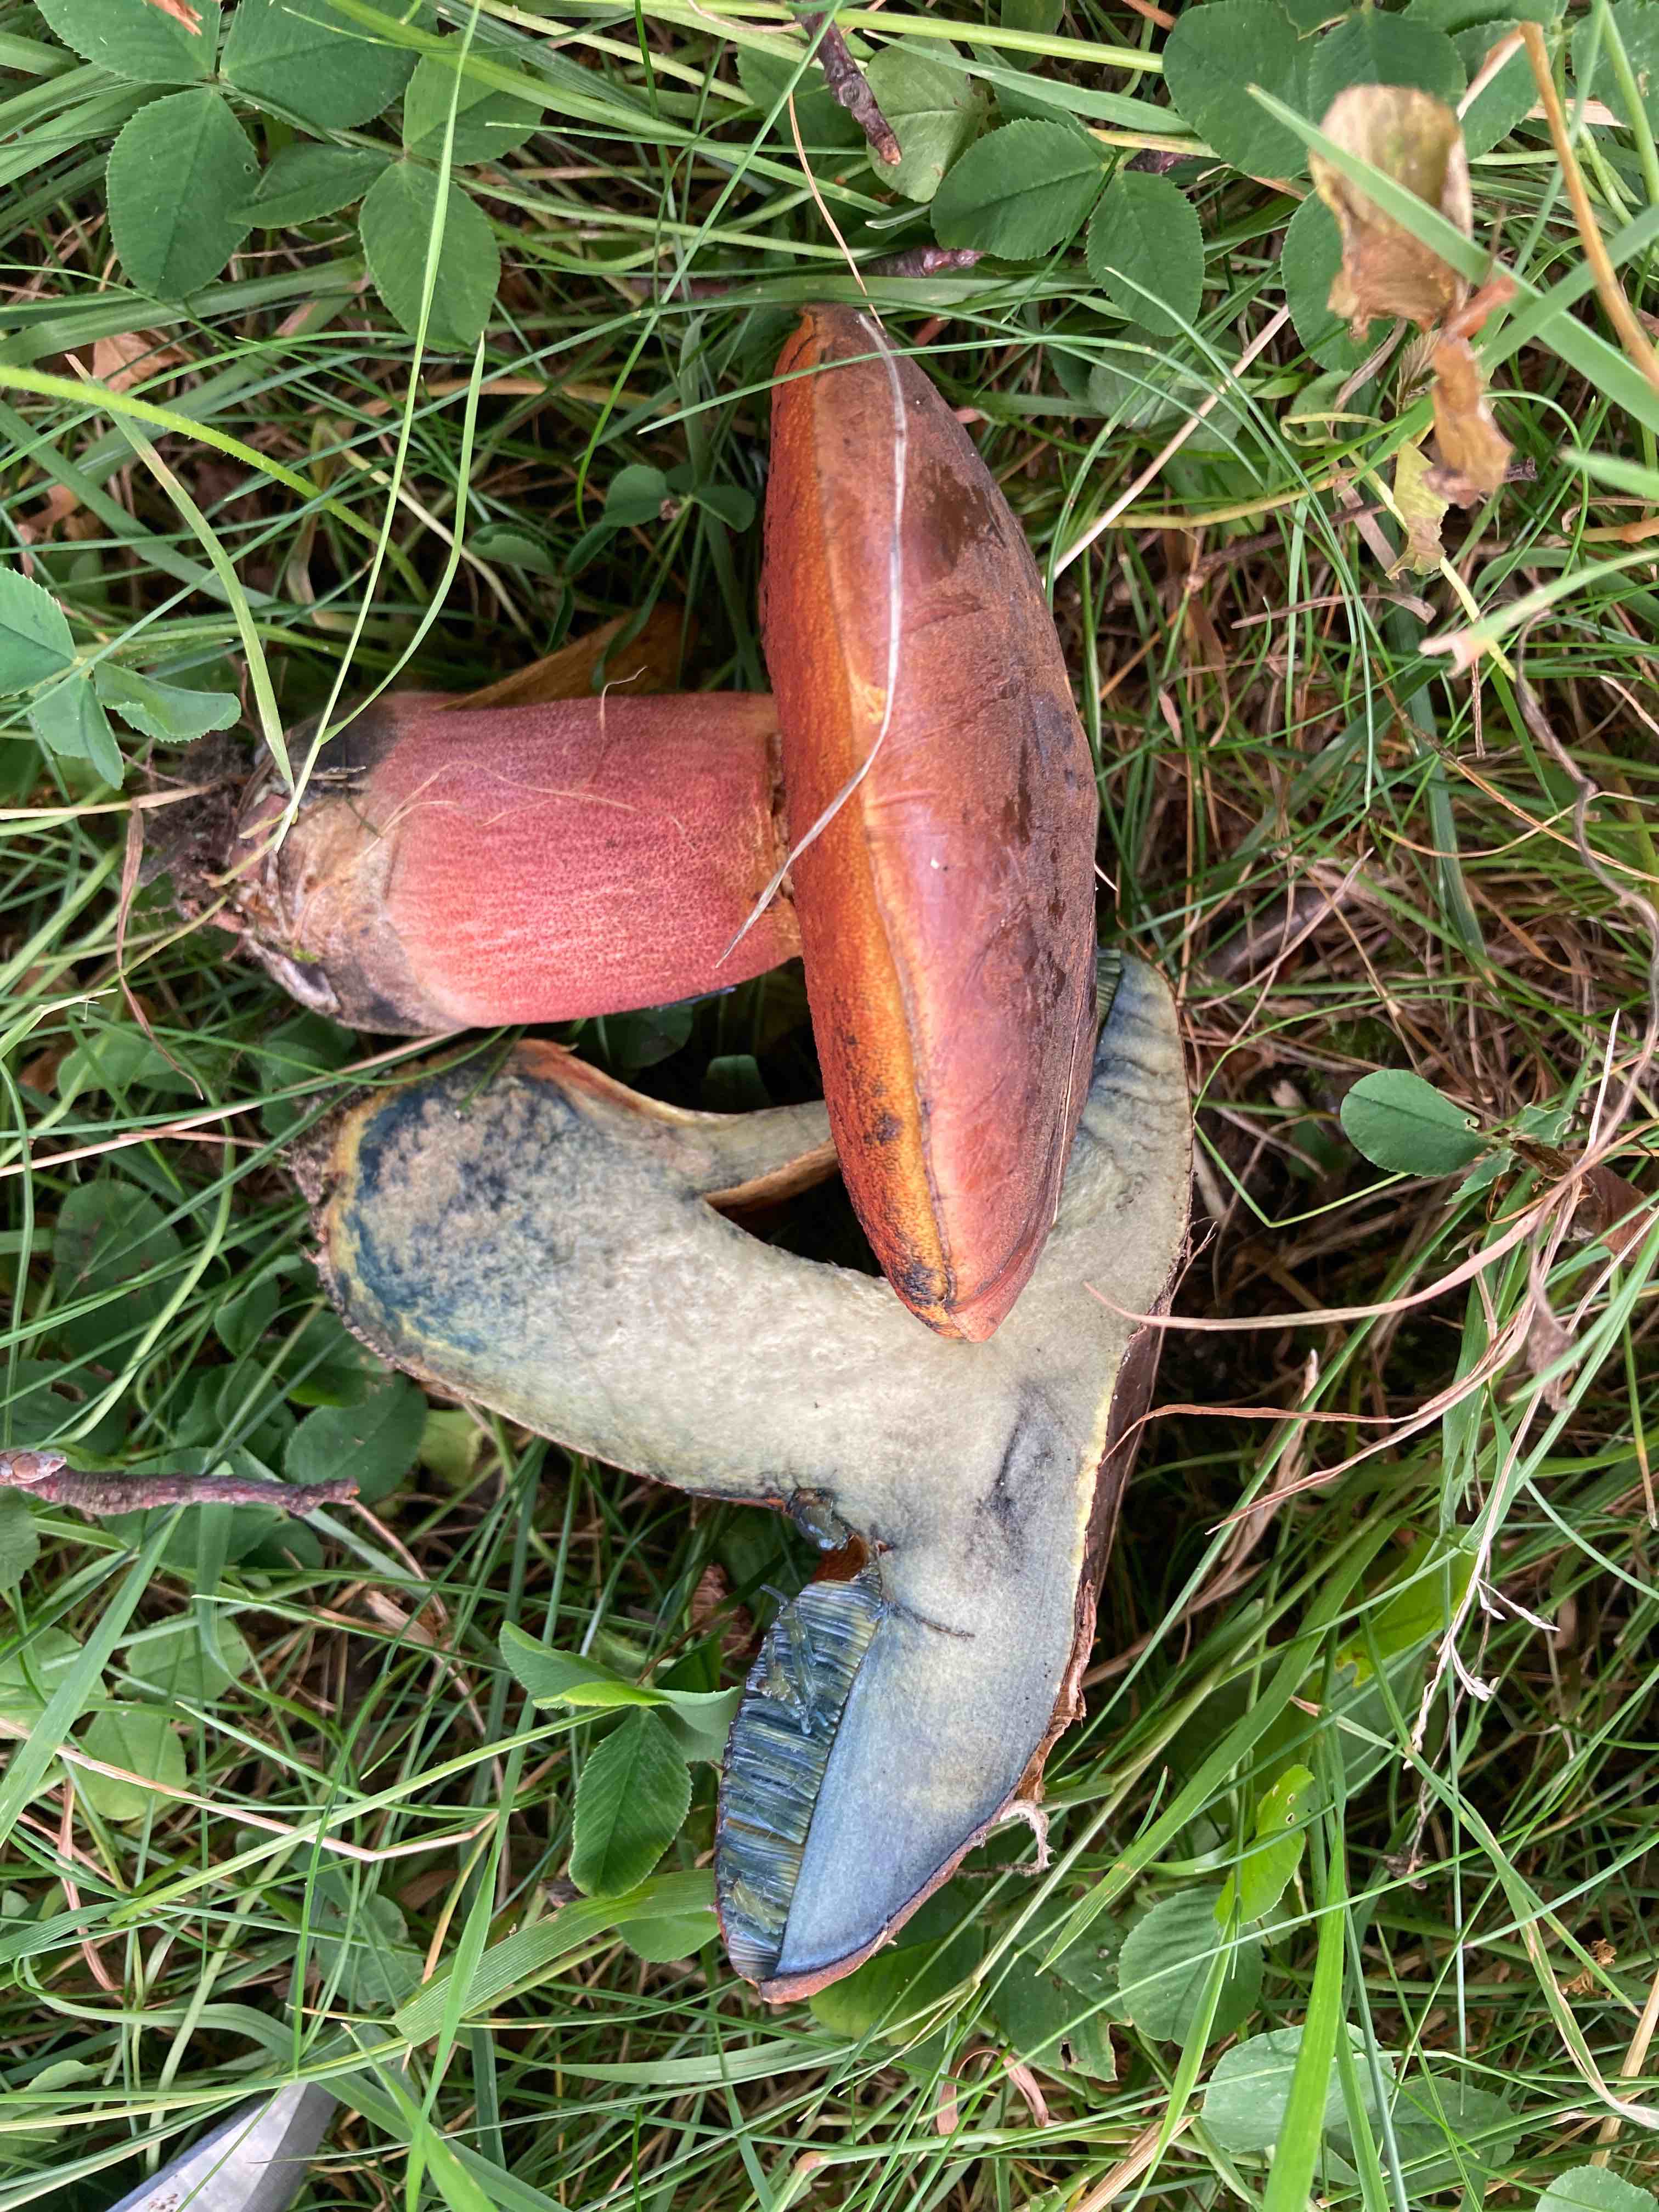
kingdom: Fungi
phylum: Basidiomycota
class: Agaricomycetes
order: Boletales
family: Boletaceae
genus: Neoboletus
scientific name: Neoboletus xanthopus
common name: finprikket indigorørhat
